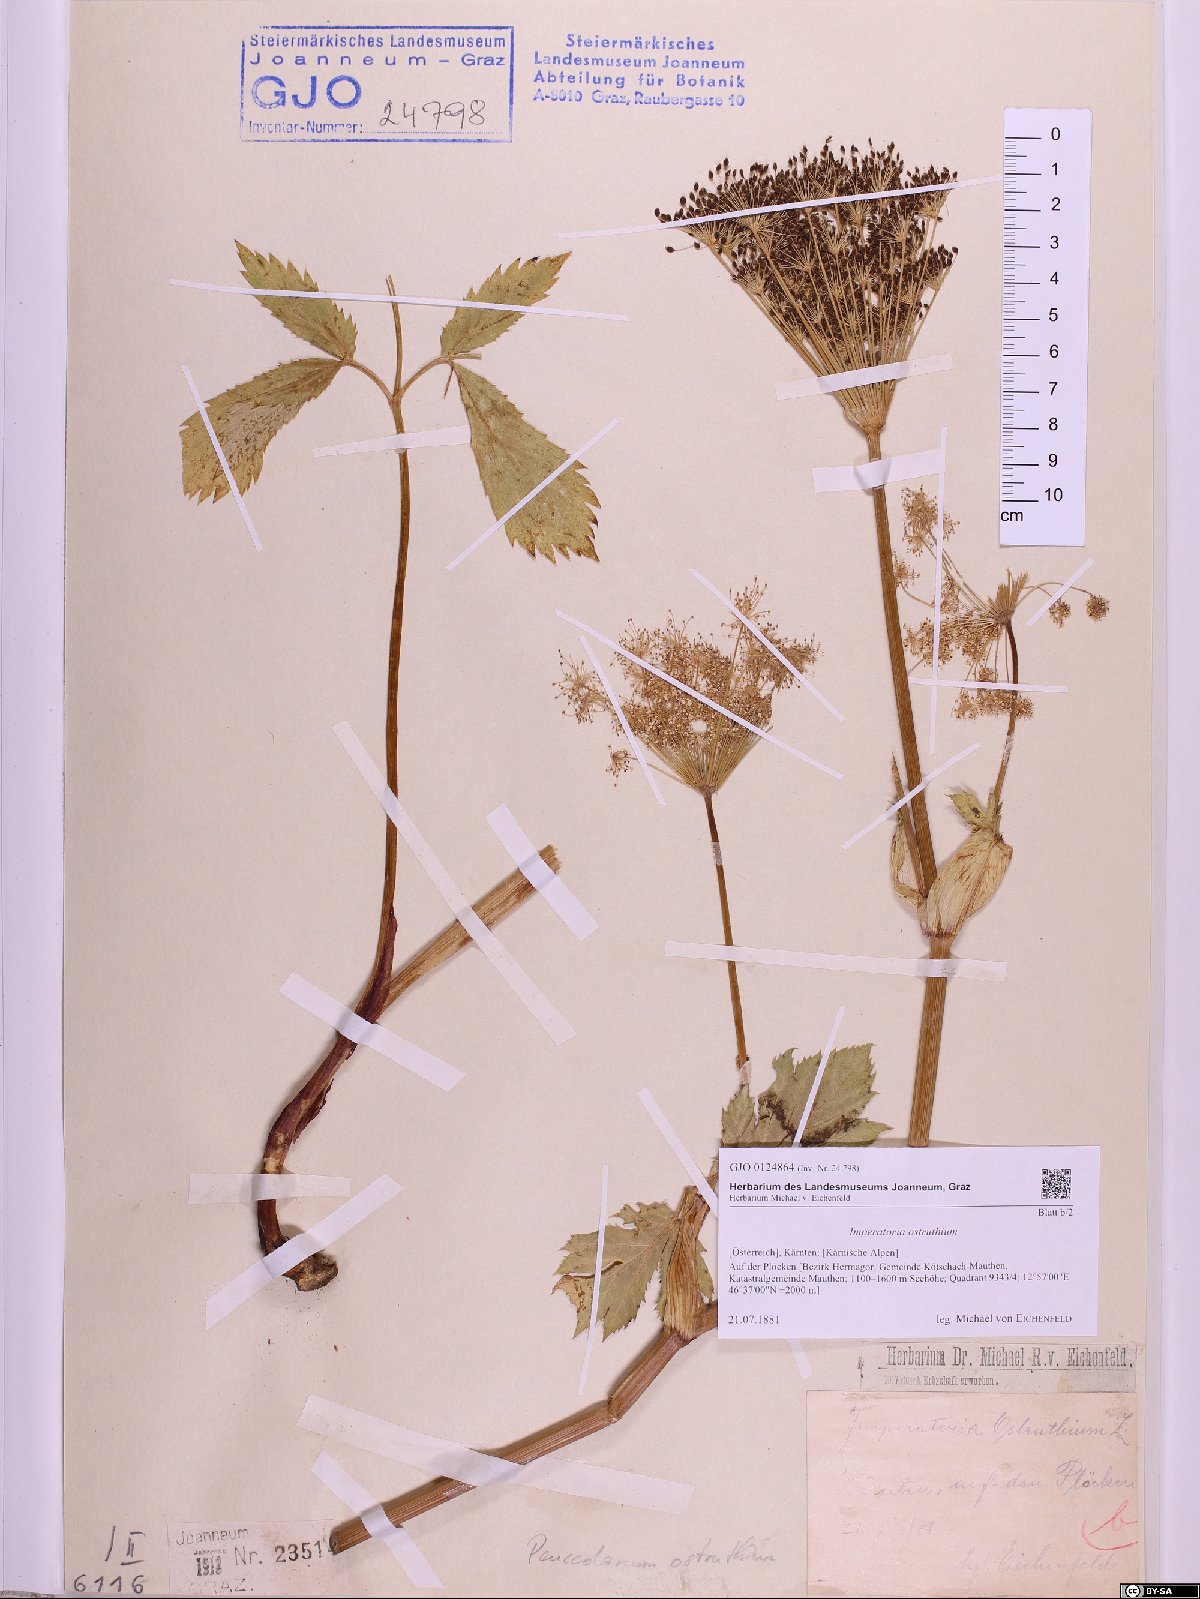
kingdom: Plantae
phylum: Tracheophyta
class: Magnoliopsida
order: Apiales
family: Apiaceae
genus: Imperatoria
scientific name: Imperatoria ostruthium
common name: Masterwort
